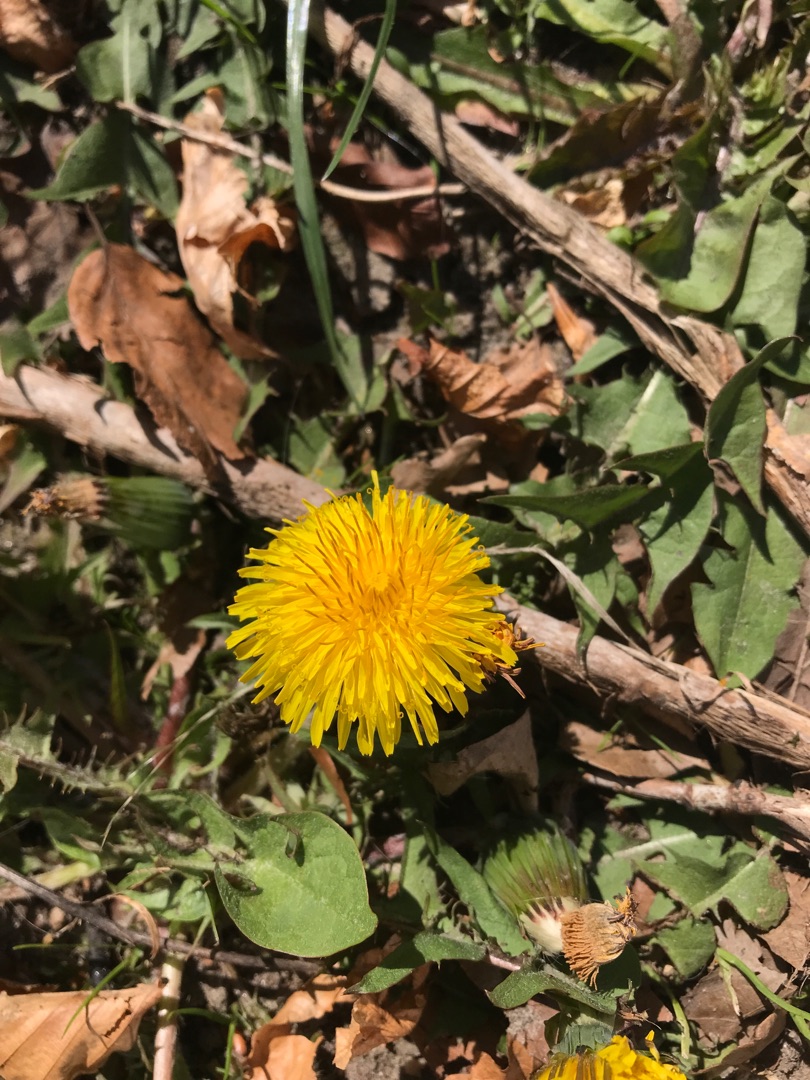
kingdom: Plantae
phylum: Tracheophyta
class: Magnoliopsida
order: Asterales
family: Asteraceae
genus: Taraxacum
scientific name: Taraxacum
